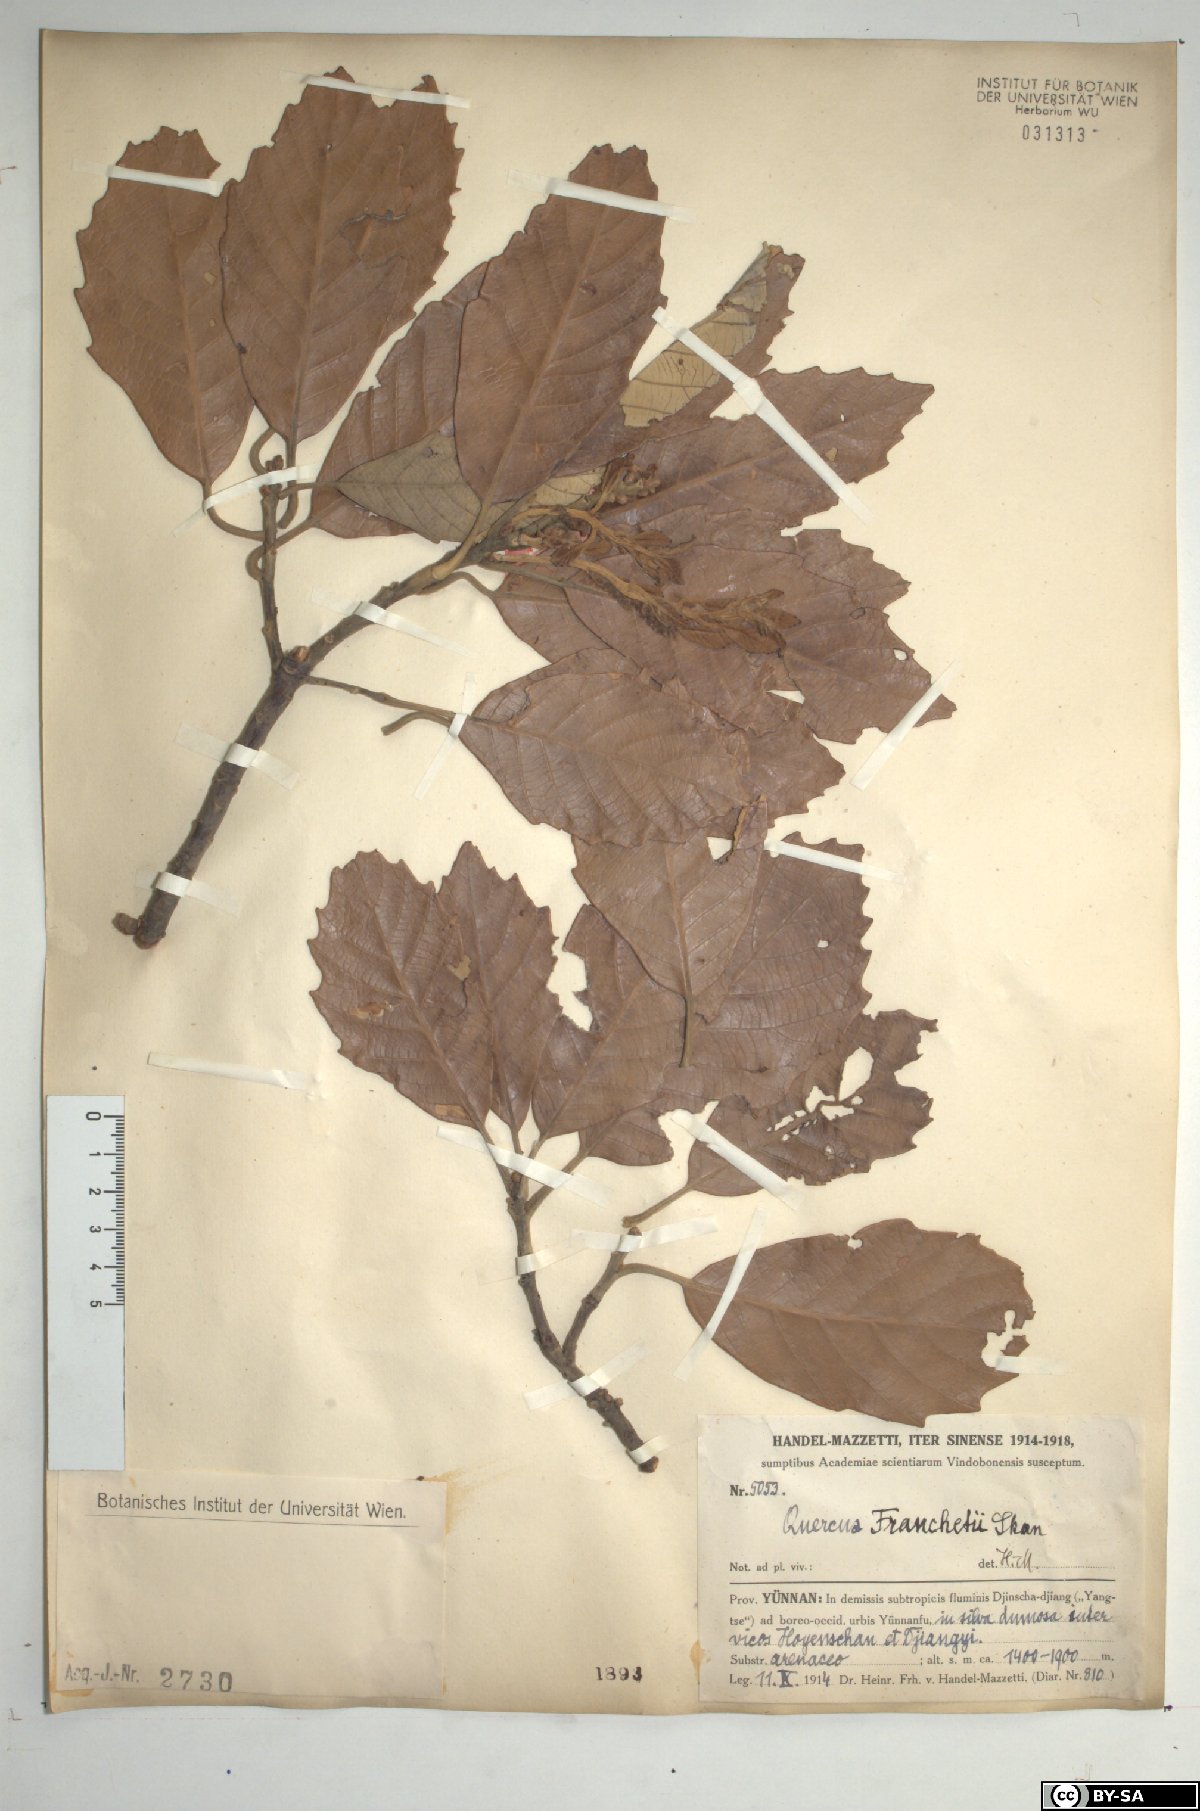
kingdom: Plantae
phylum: Tracheophyta
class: Magnoliopsida
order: Fagales
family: Fagaceae
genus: Quercus
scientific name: Quercus franchetii
